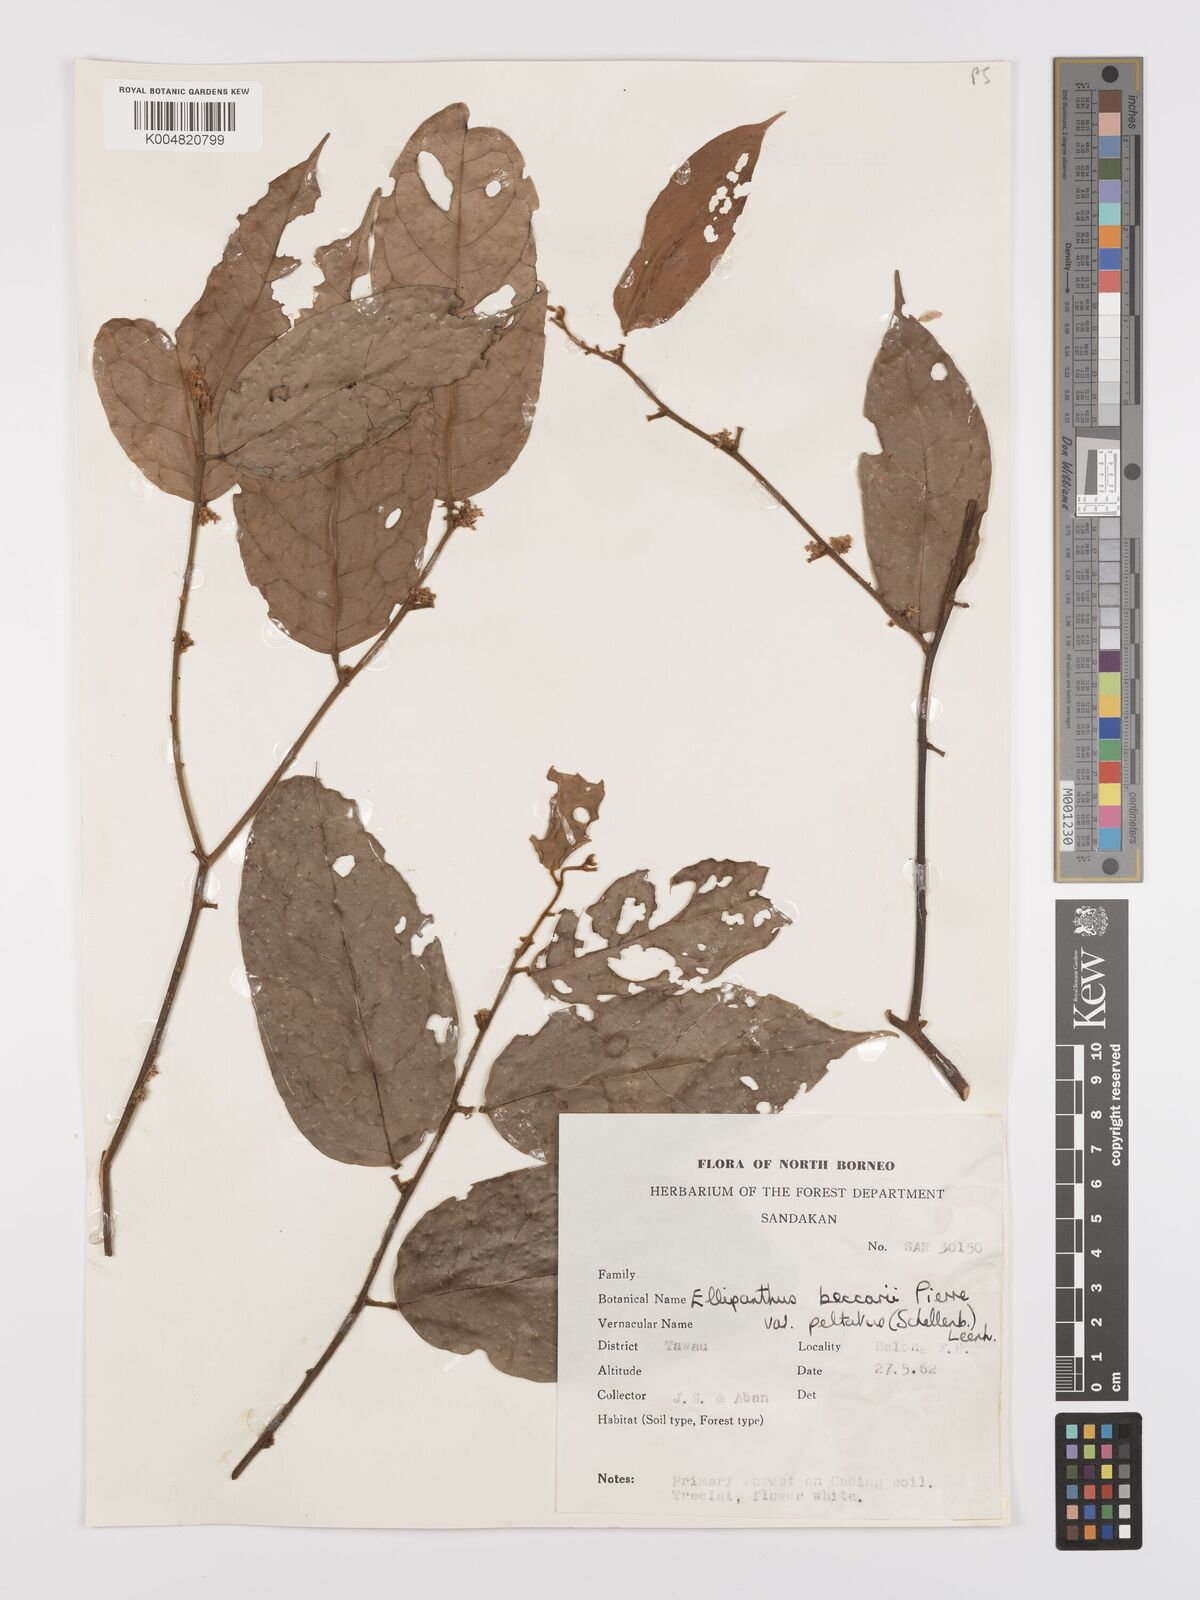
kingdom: Plantae
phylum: Tracheophyta
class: Magnoliopsida
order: Oxalidales
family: Connaraceae
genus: Ellipanthus
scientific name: Ellipanthus beccarii
